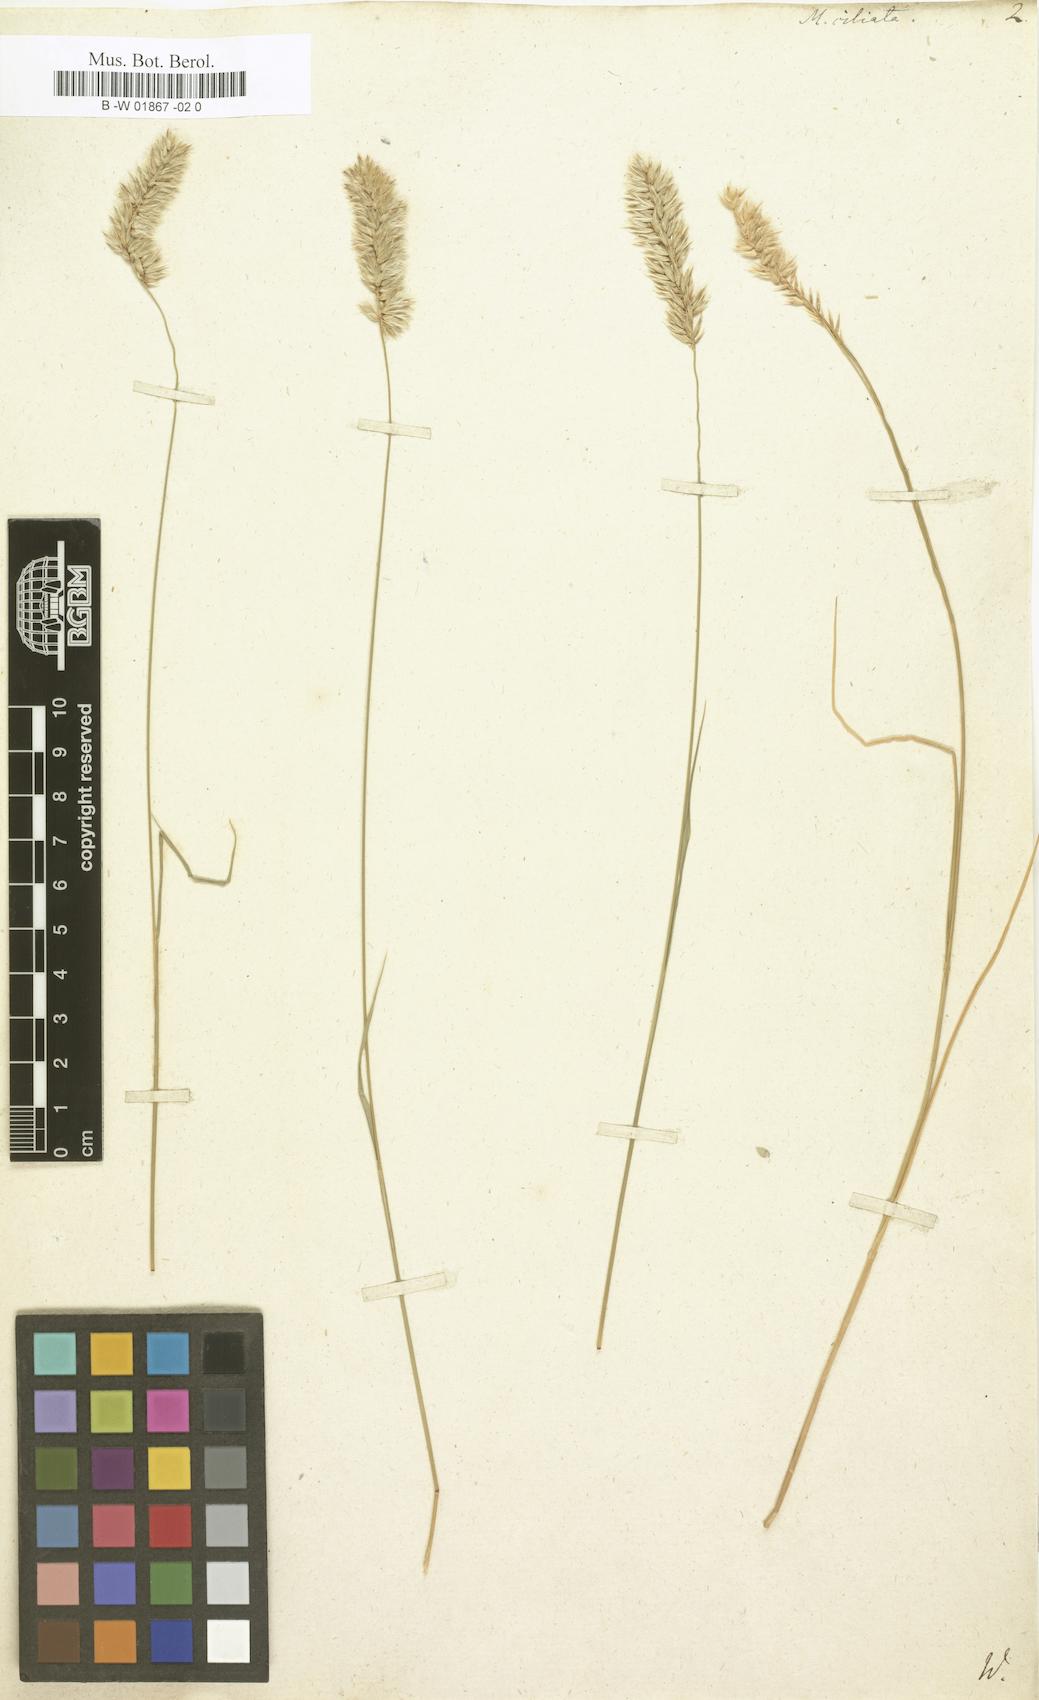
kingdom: Plantae
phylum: Tracheophyta
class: Liliopsida
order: Poales
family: Poaceae
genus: Melica
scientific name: Melica ciliata
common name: Hairy melicgrass
